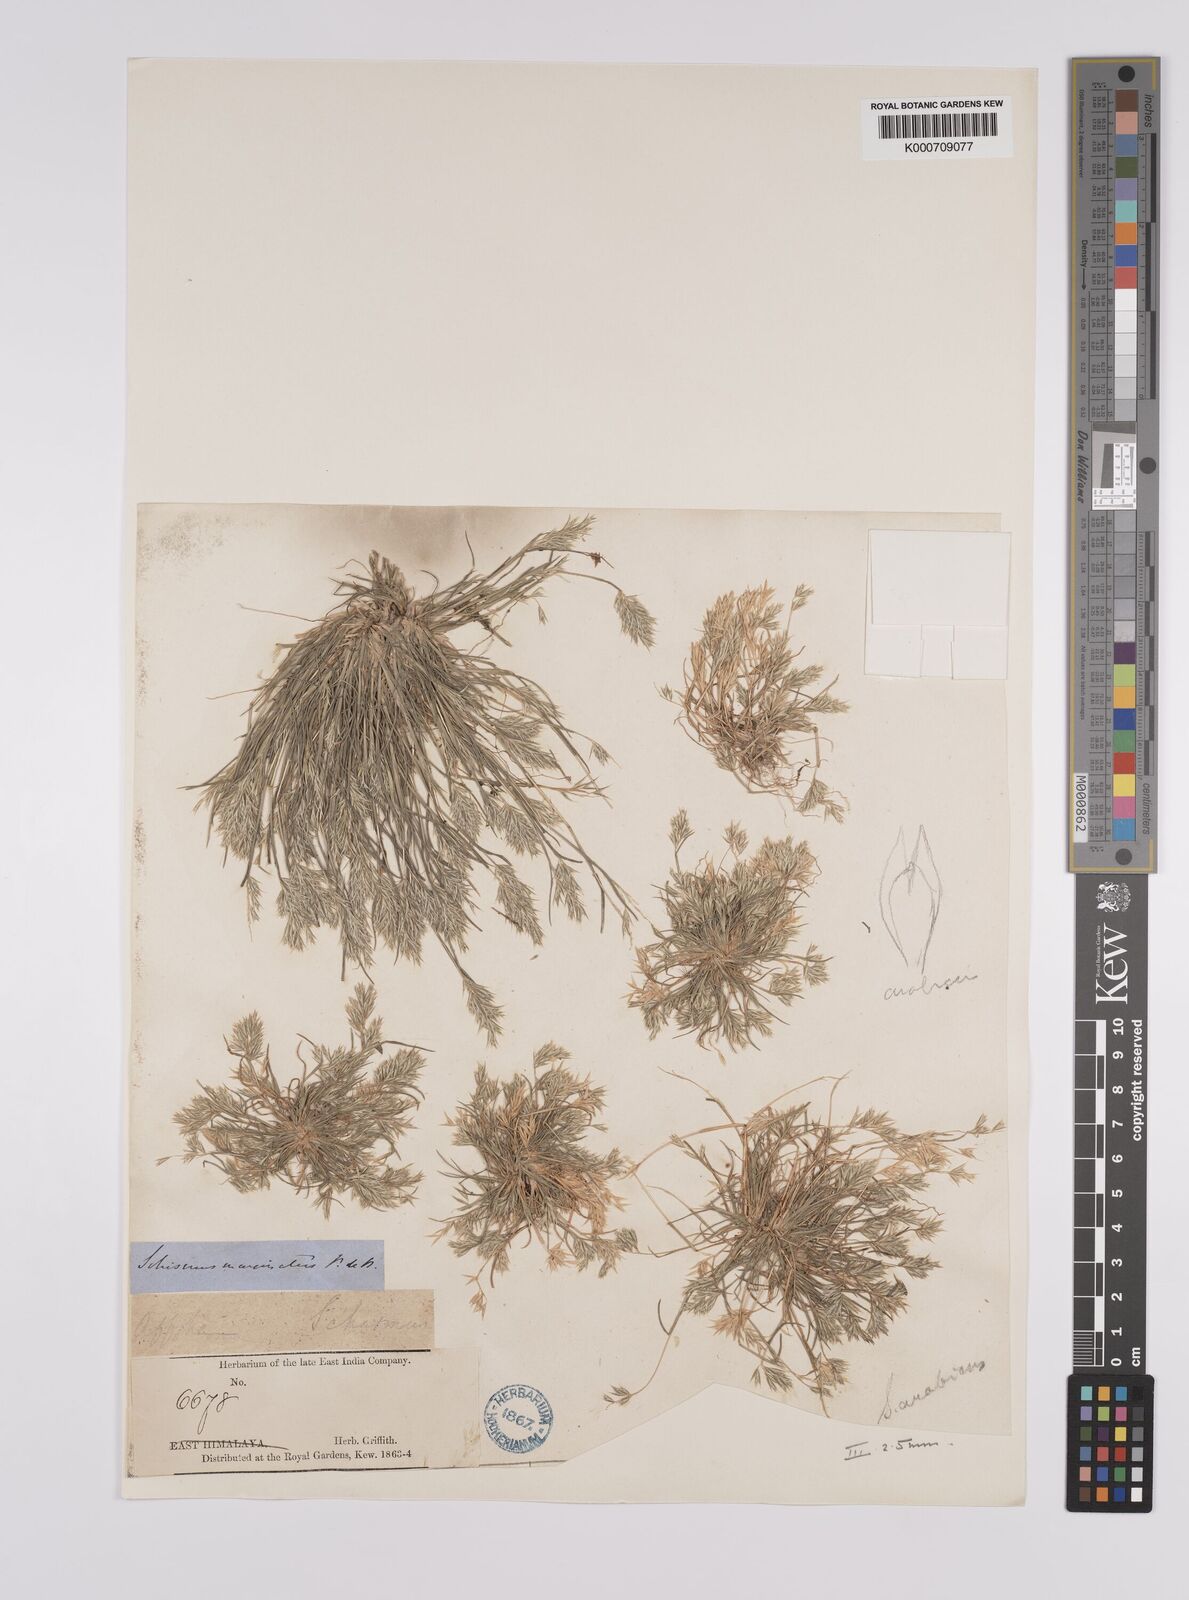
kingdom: Plantae
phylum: Tracheophyta
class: Liliopsida
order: Poales
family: Poaceae
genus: Schismus
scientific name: Schismus arabicus
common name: Arabian schismus
